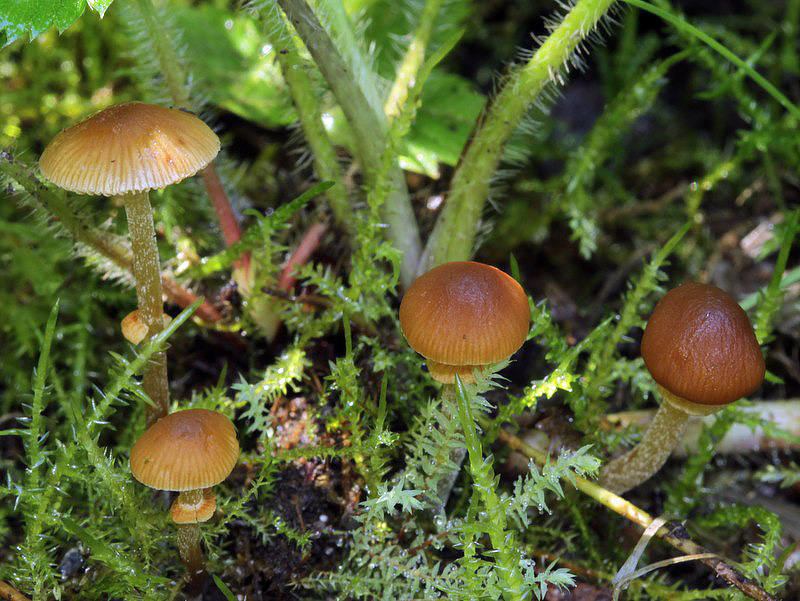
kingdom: Fungi
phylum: Basidiomycota
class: Agaricomycetes
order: Agaricales
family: Bolbitiaceae
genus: Conocybe
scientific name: Conocybe arrhenii
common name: ring-dansehat
